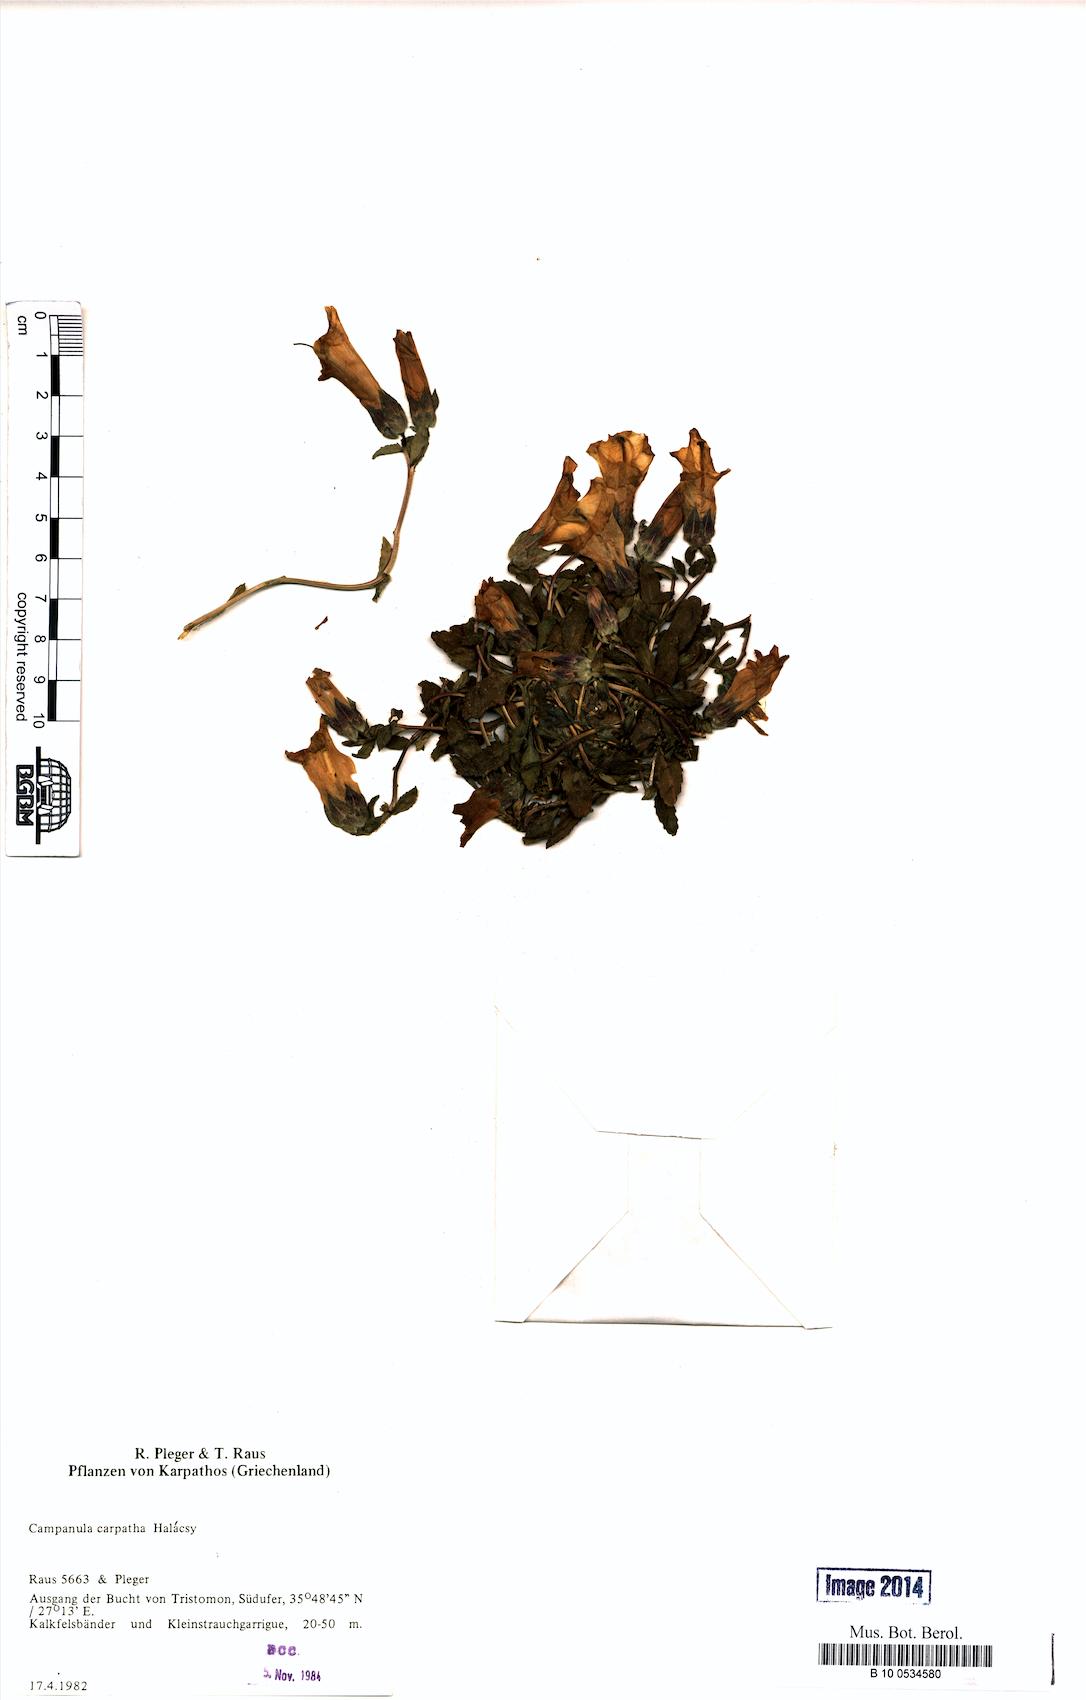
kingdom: Plantae
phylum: Tracheophyta
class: Magnoliopsida
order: Asterales
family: Campanulaceae
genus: Campanula
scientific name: Campanula carpatha
